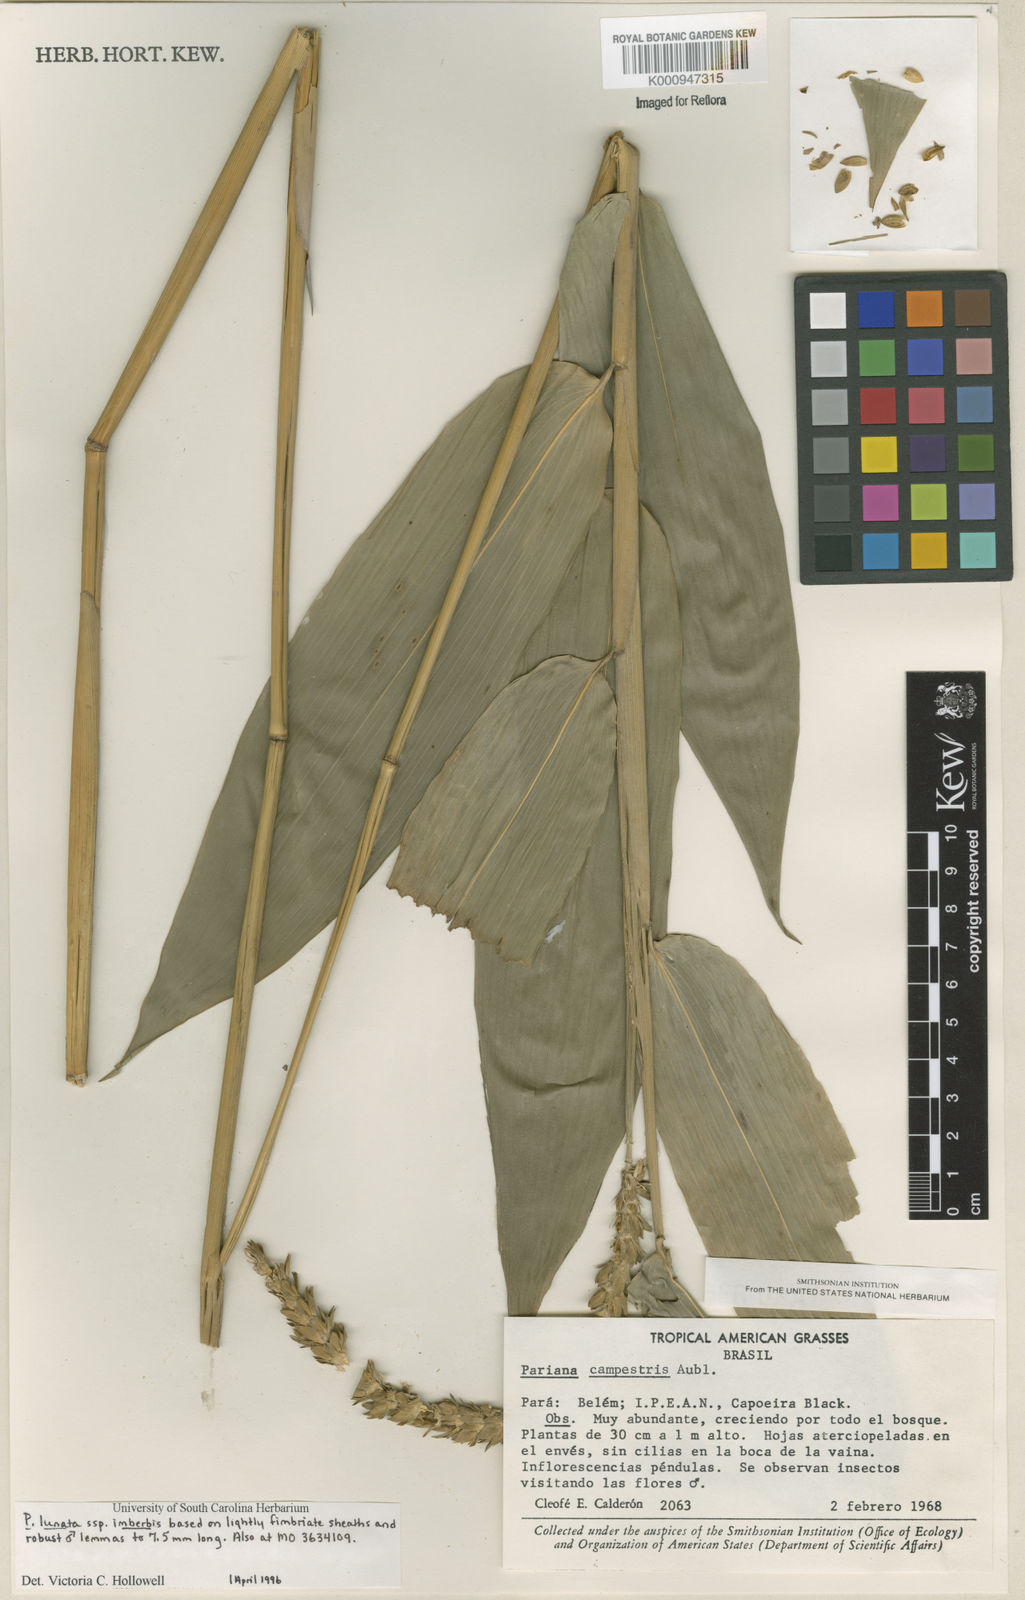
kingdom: Plantae
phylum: Tracheophyta
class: Liliopsida
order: Poales
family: Poaceae
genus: Pariana
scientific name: Pariana
